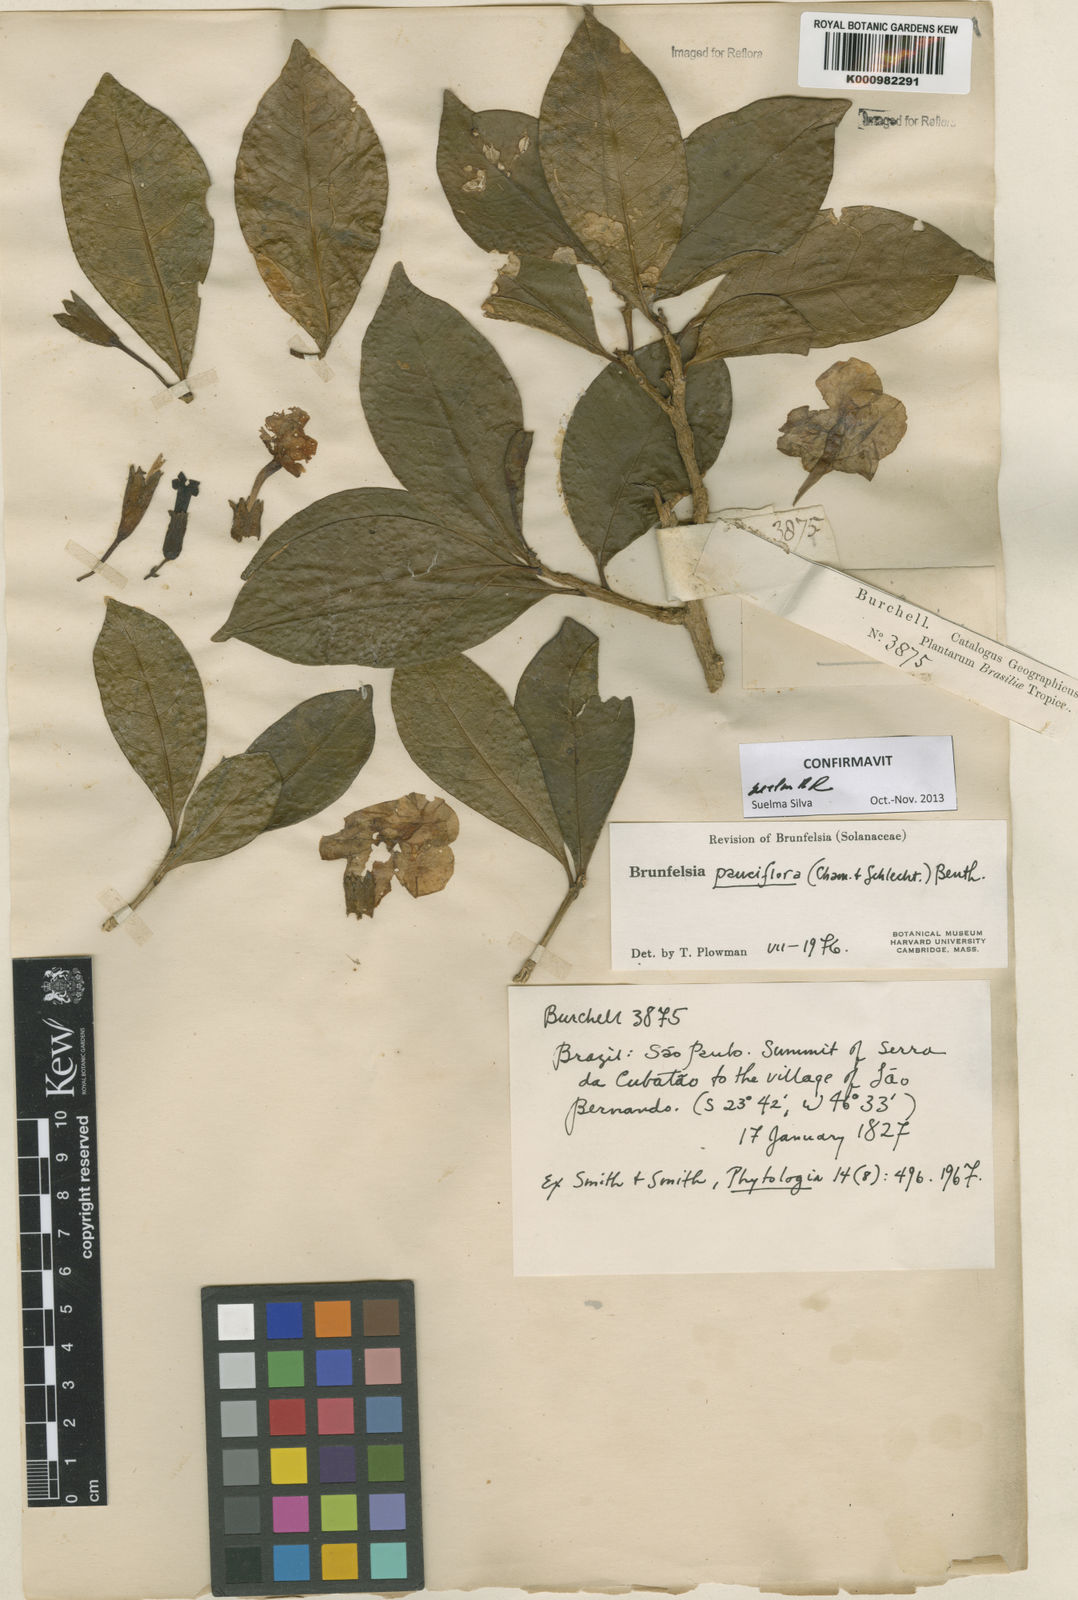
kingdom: Plantae
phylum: Tracheophyta
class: Magnoliopsida
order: Solanales
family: Solanaceae
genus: Brunfelsia
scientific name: Brunfelsia pauciflora
